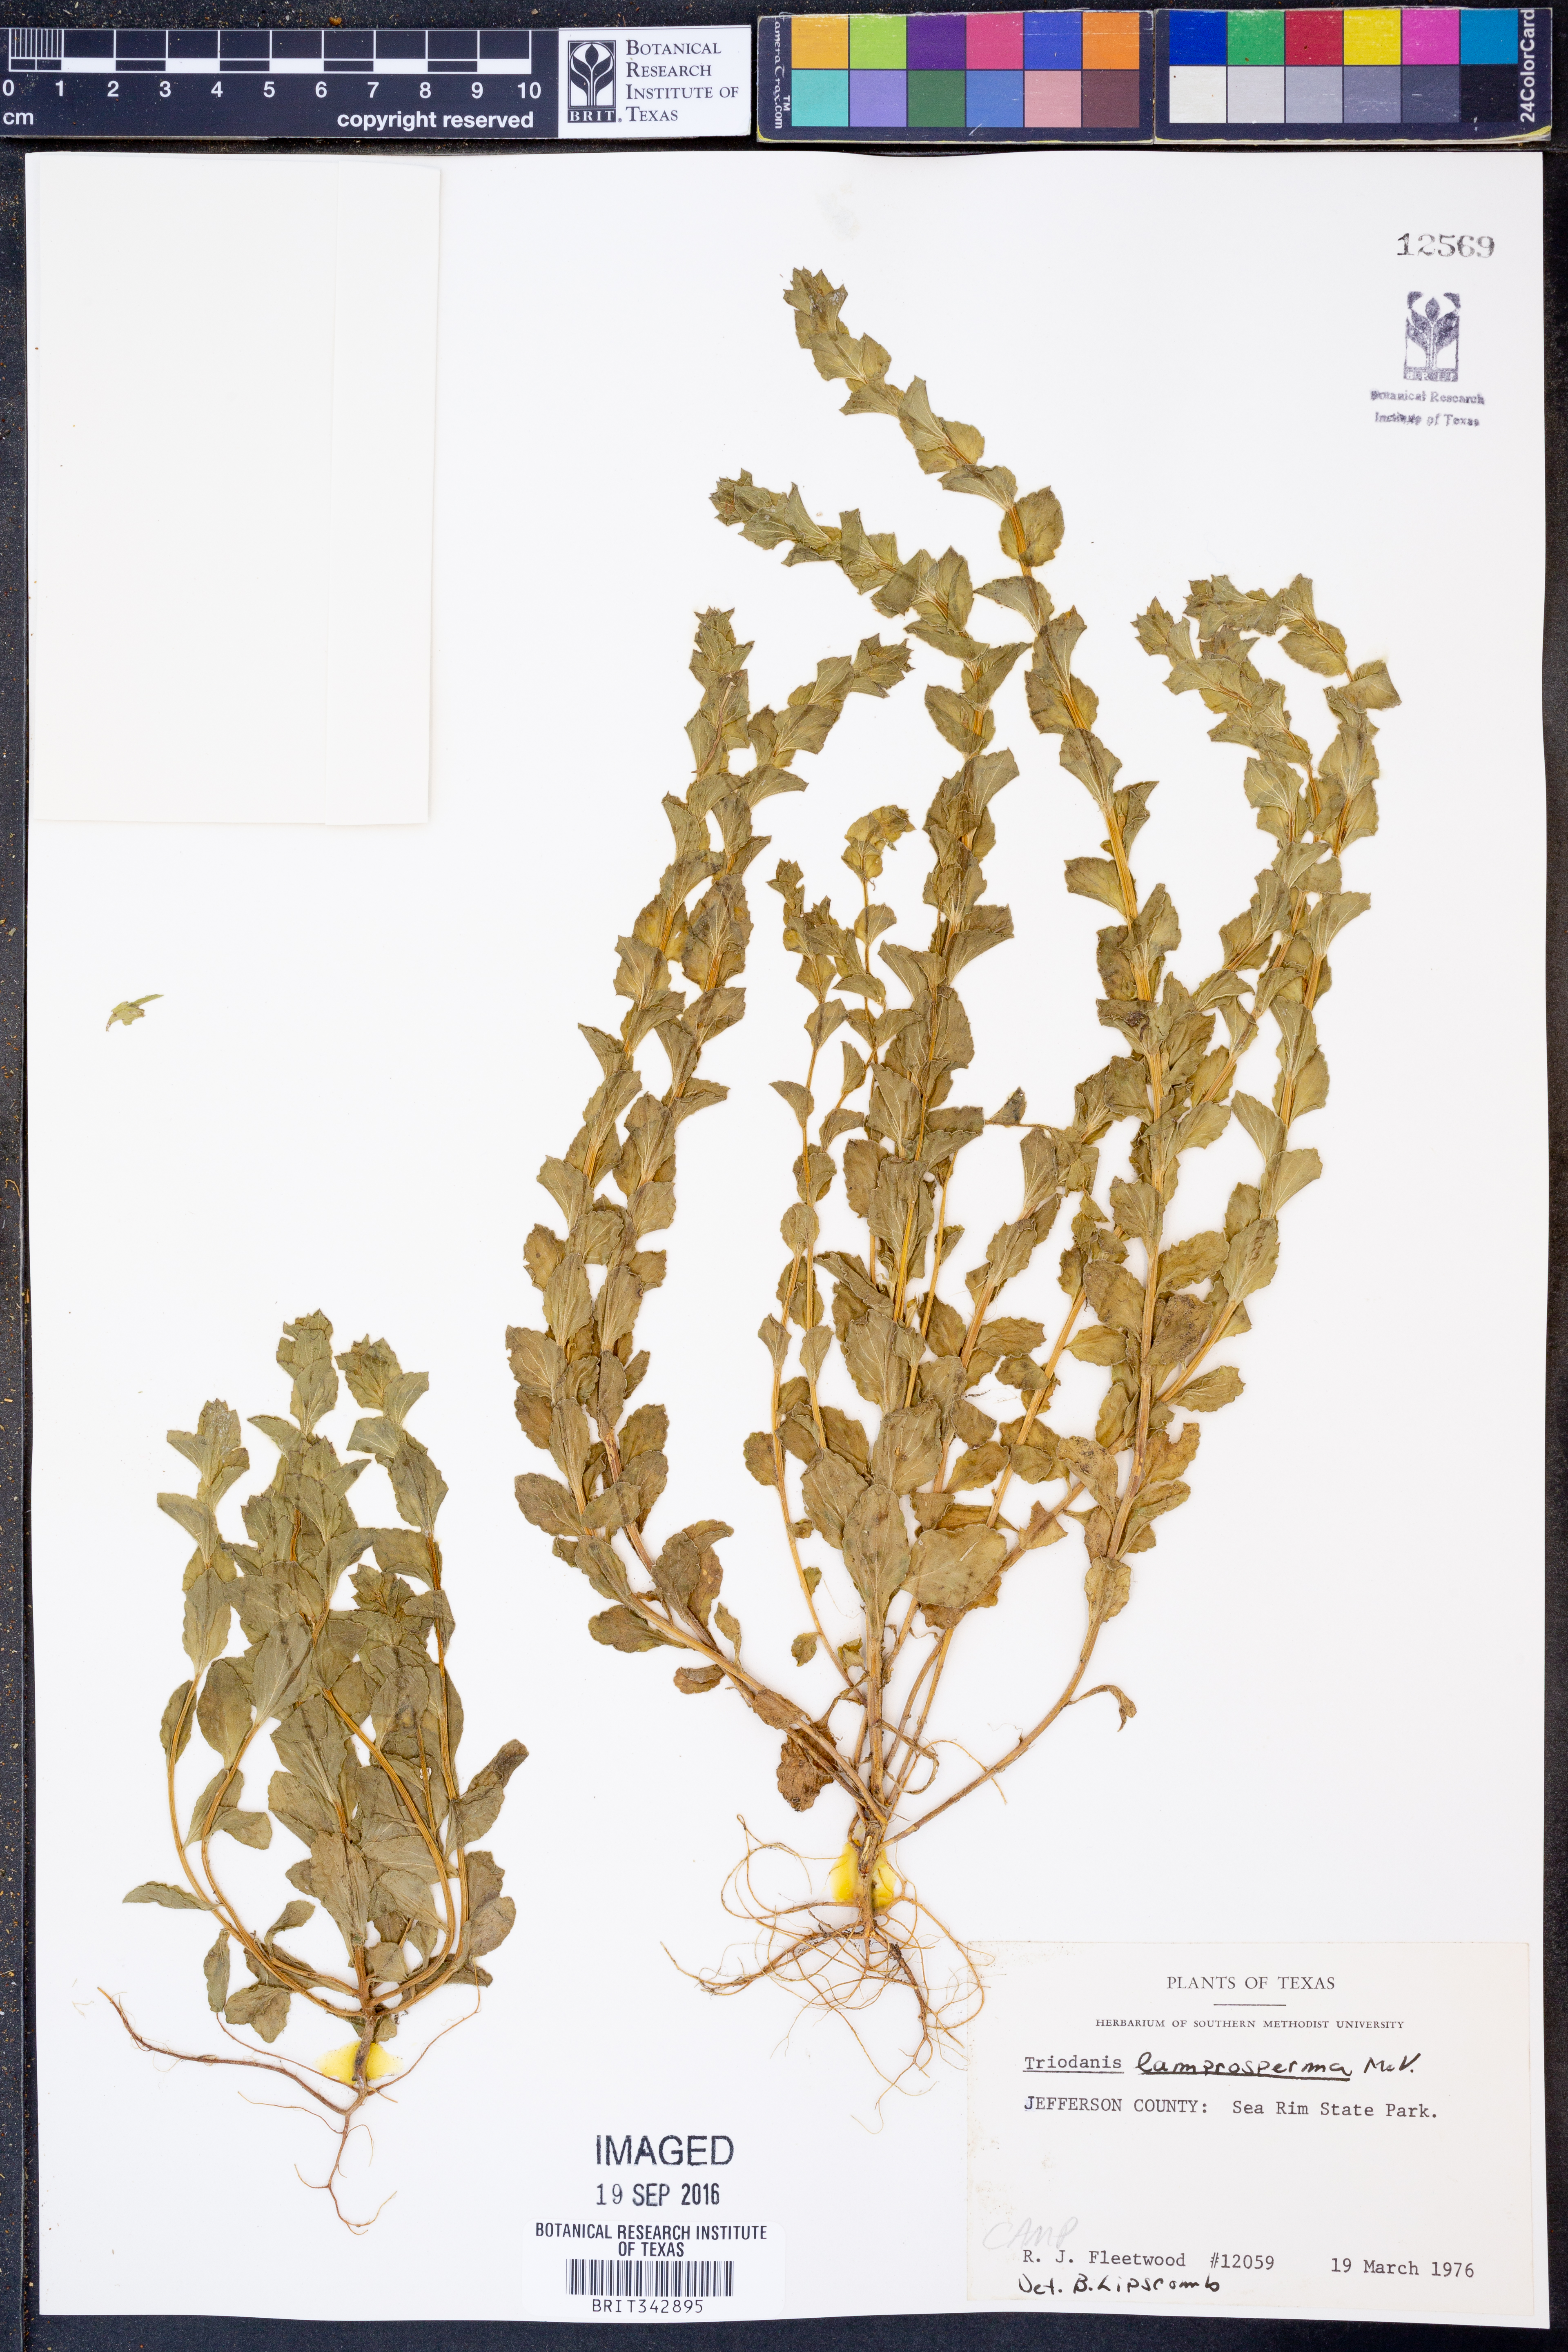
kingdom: Plantae
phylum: Tracheophyta
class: Magnoliopsida
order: Asterales
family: Campanulaceae
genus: Triodanis
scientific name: Triodanis lamprosperma
